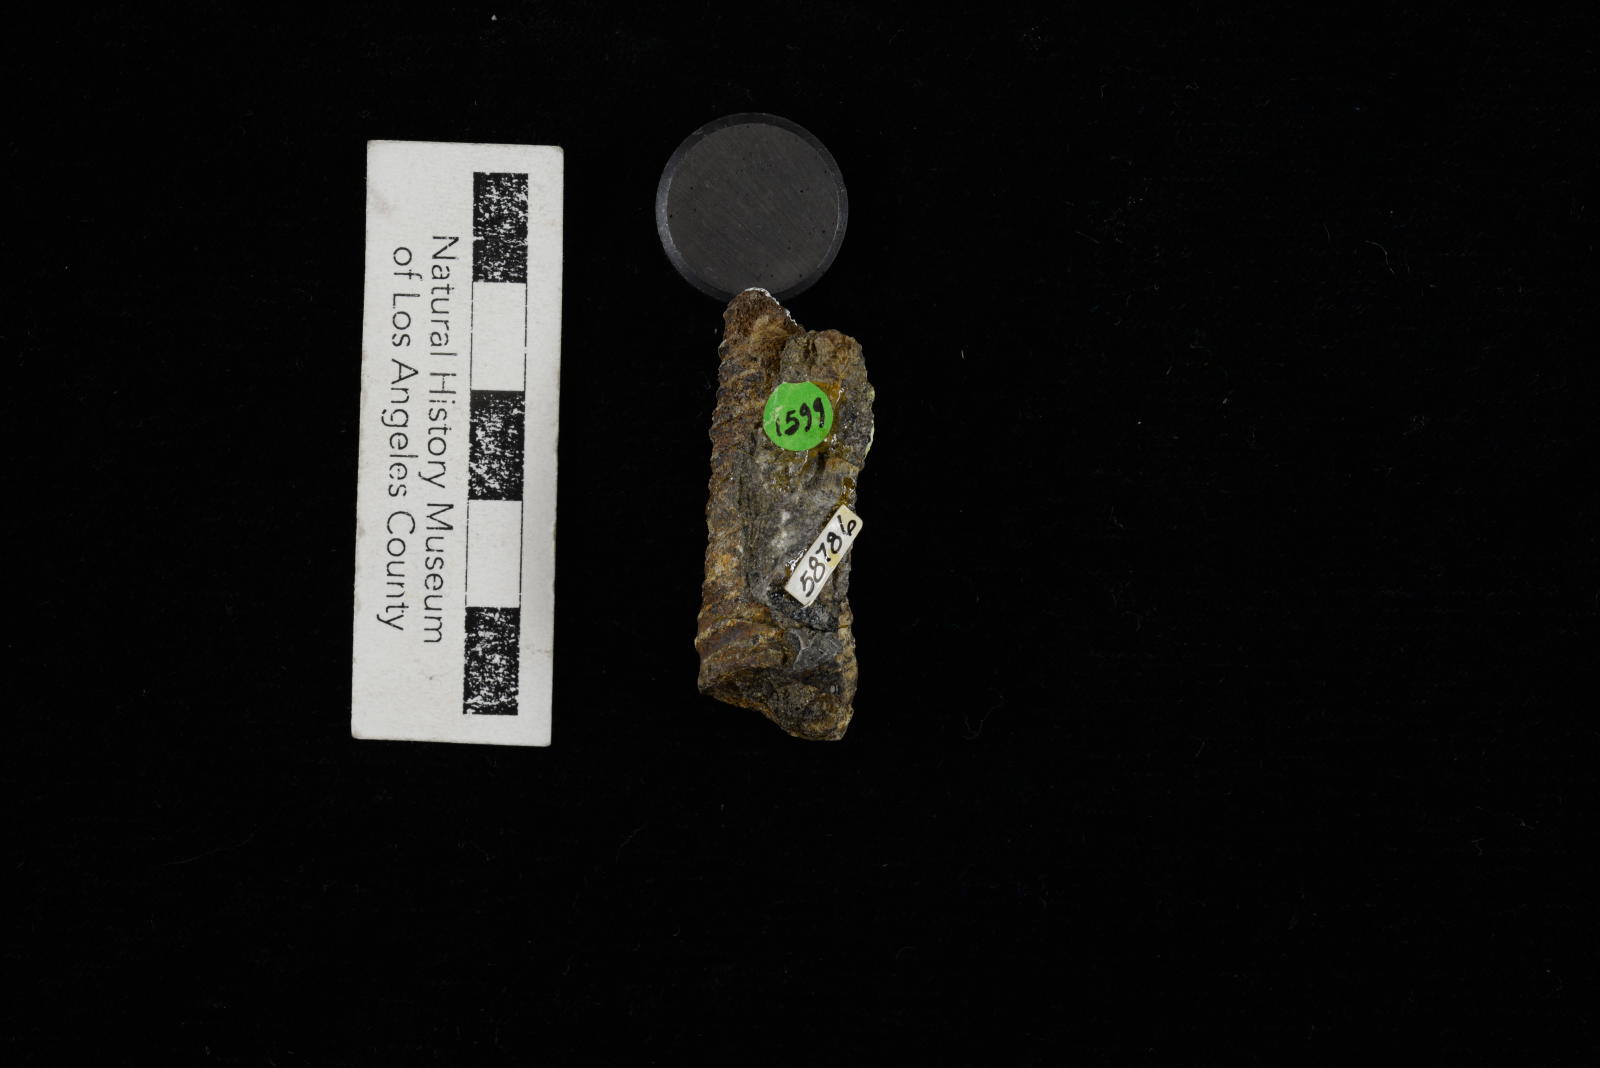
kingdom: Animalia
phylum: Mollusca
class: Gastropoda
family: Turritellidae
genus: Turritella
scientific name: Turritella
